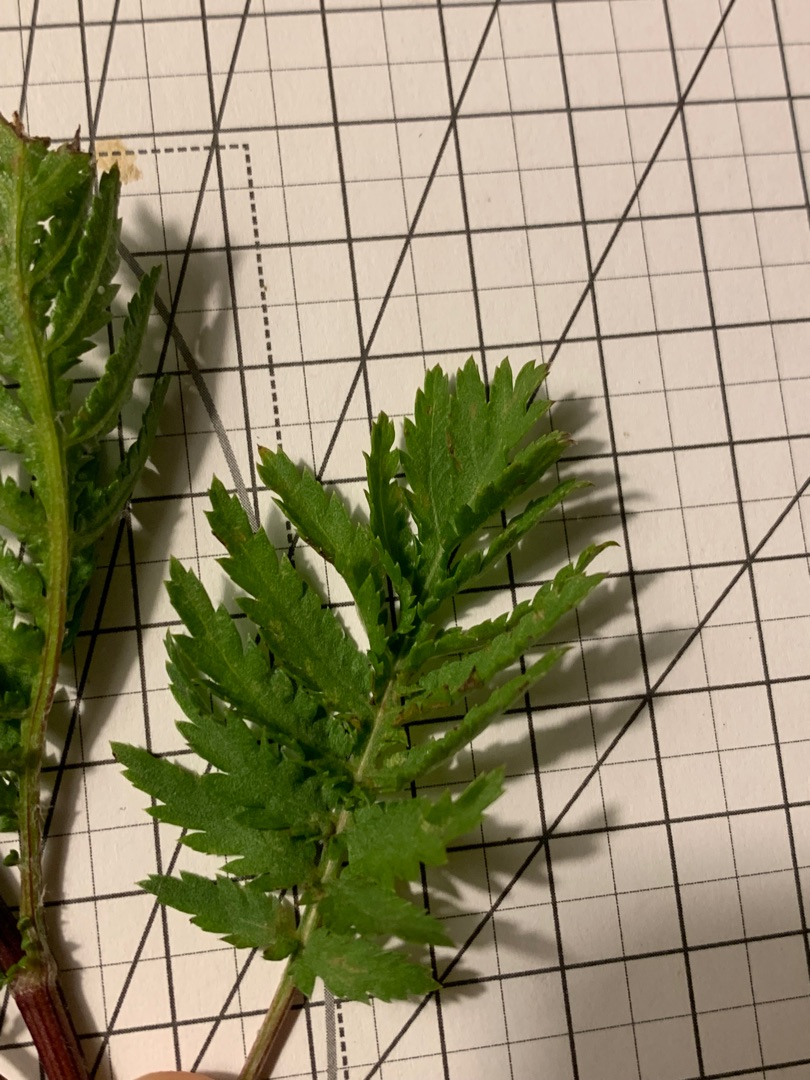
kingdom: Plantae
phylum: Tracheophyta
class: Magnoliopsida
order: Asterales
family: Asteraceae
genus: Tanacetum
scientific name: Tanacetum vulgare
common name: Rejnfan
